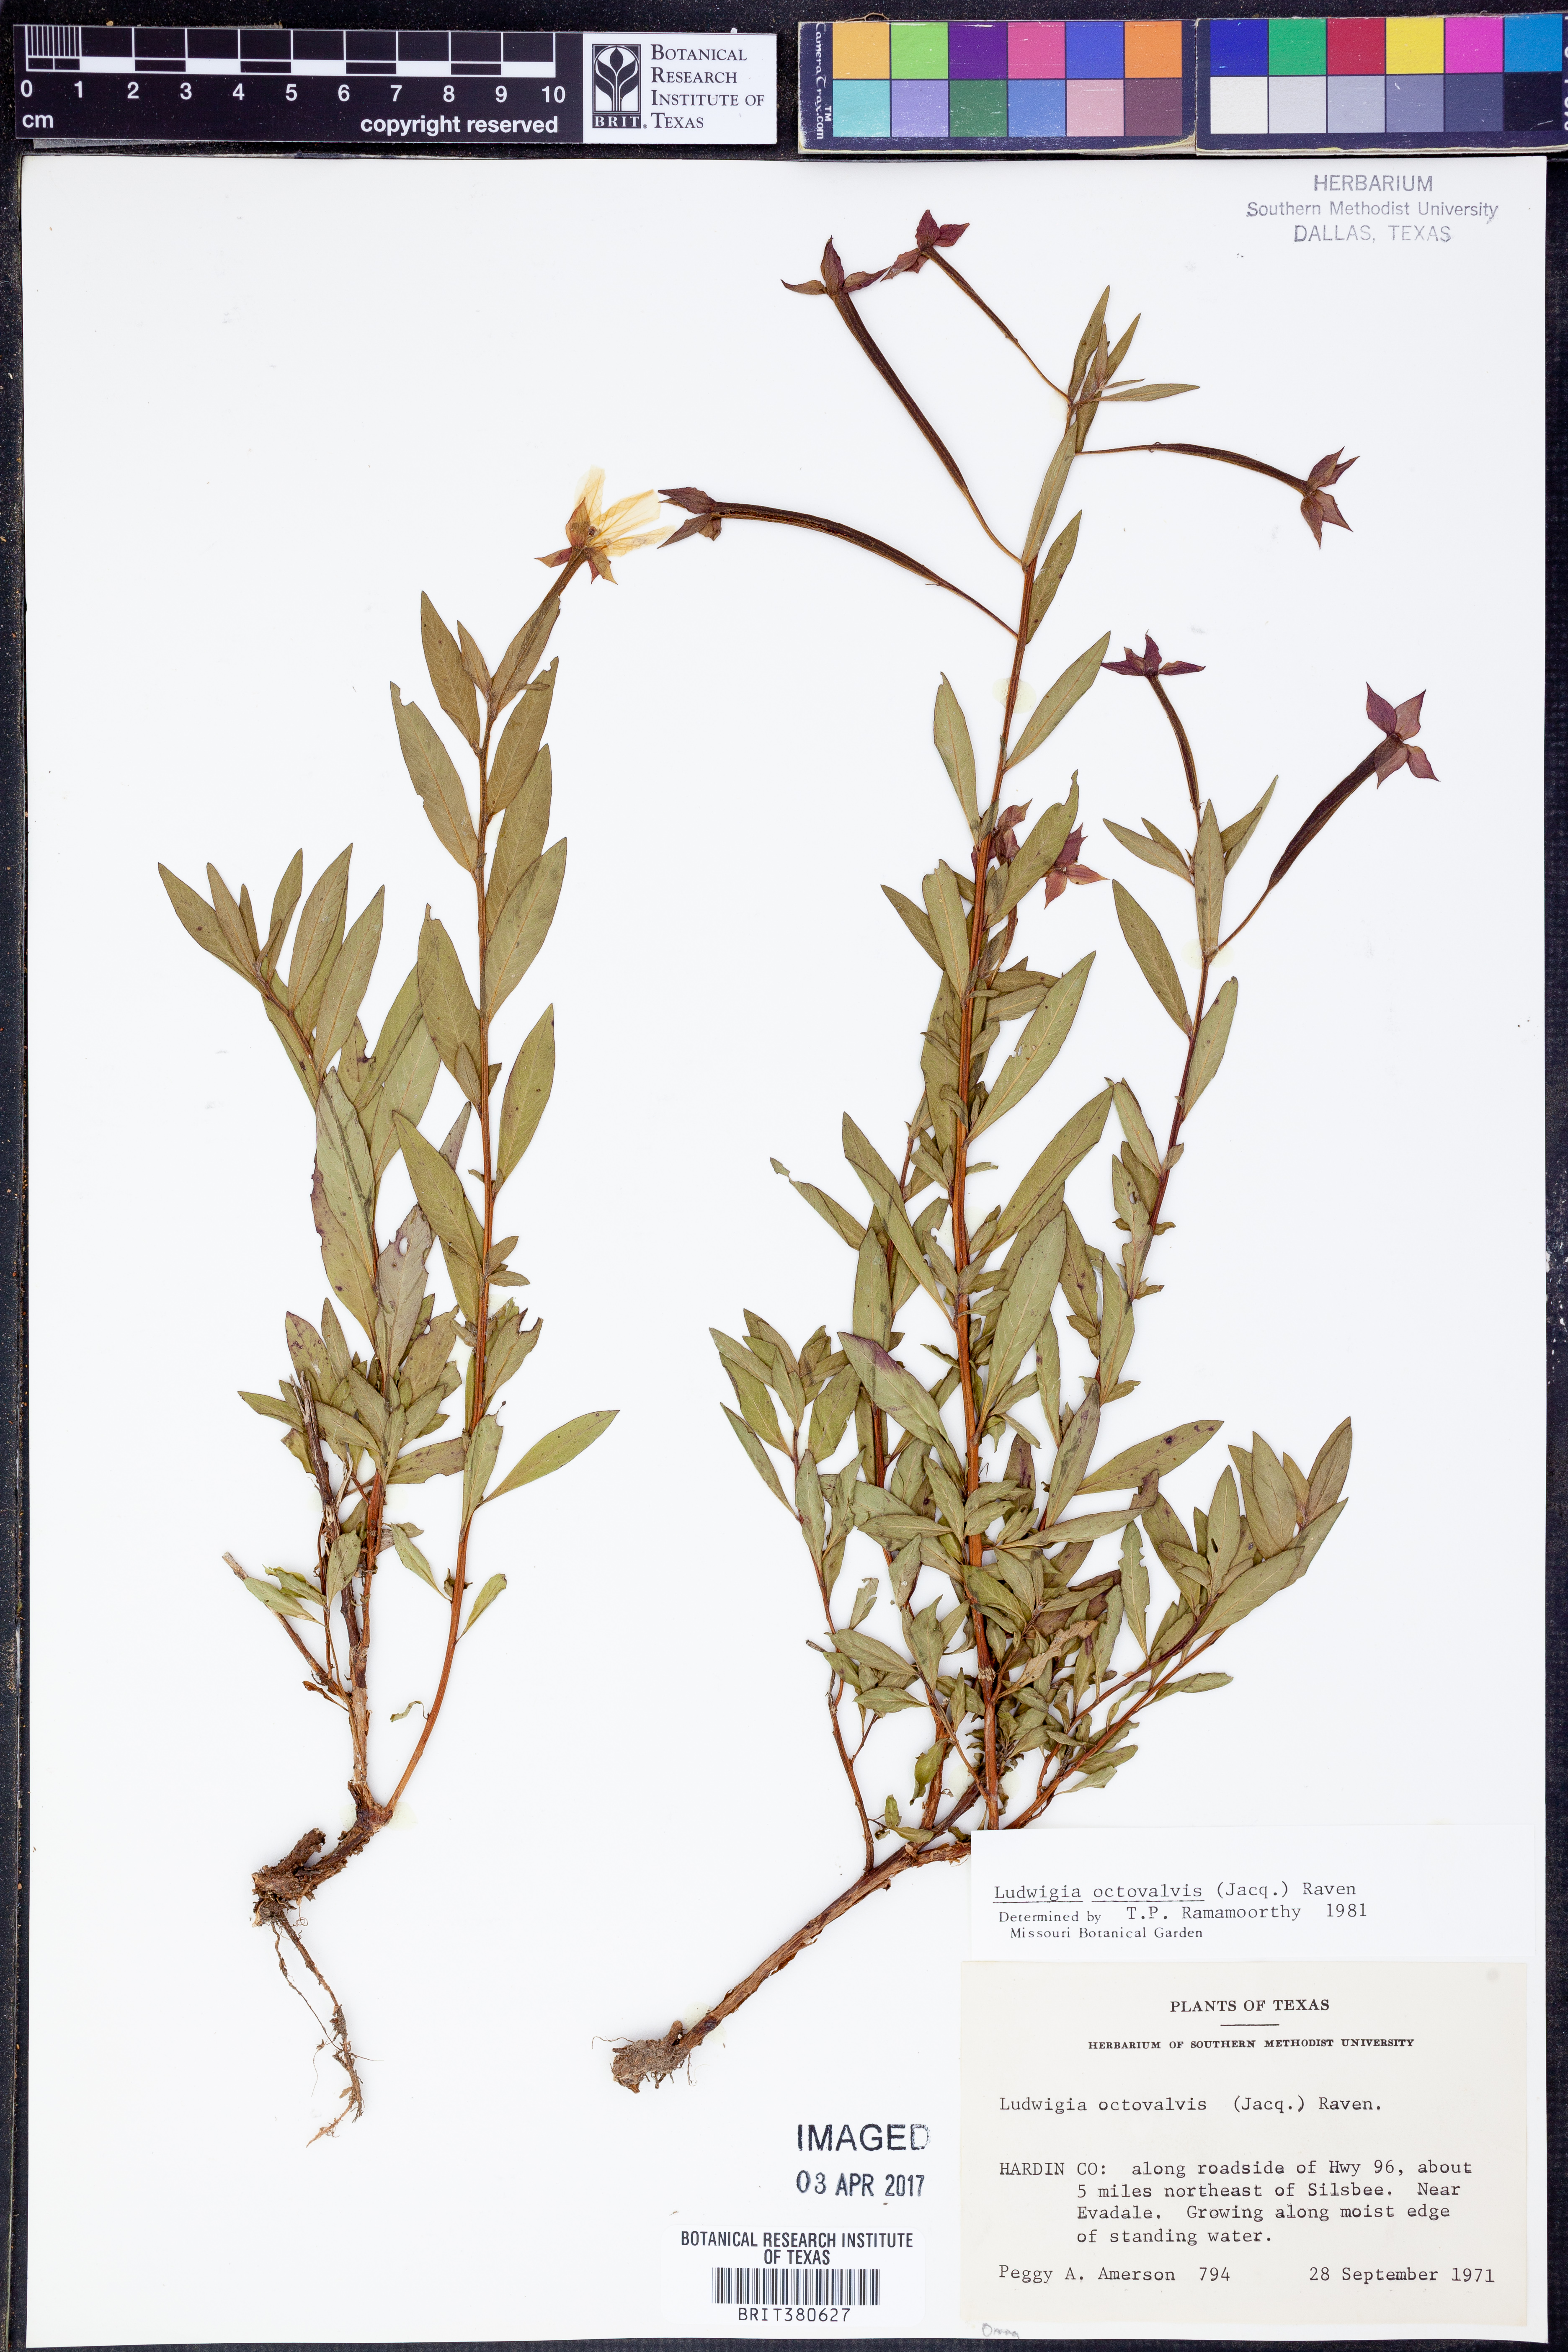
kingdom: Plantae
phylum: Tracheophyta
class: Magnoliopsida
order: Myrtales
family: Onagraceae
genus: Ludwigia
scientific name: Ludwigia octovalvis
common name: Water-primrose
